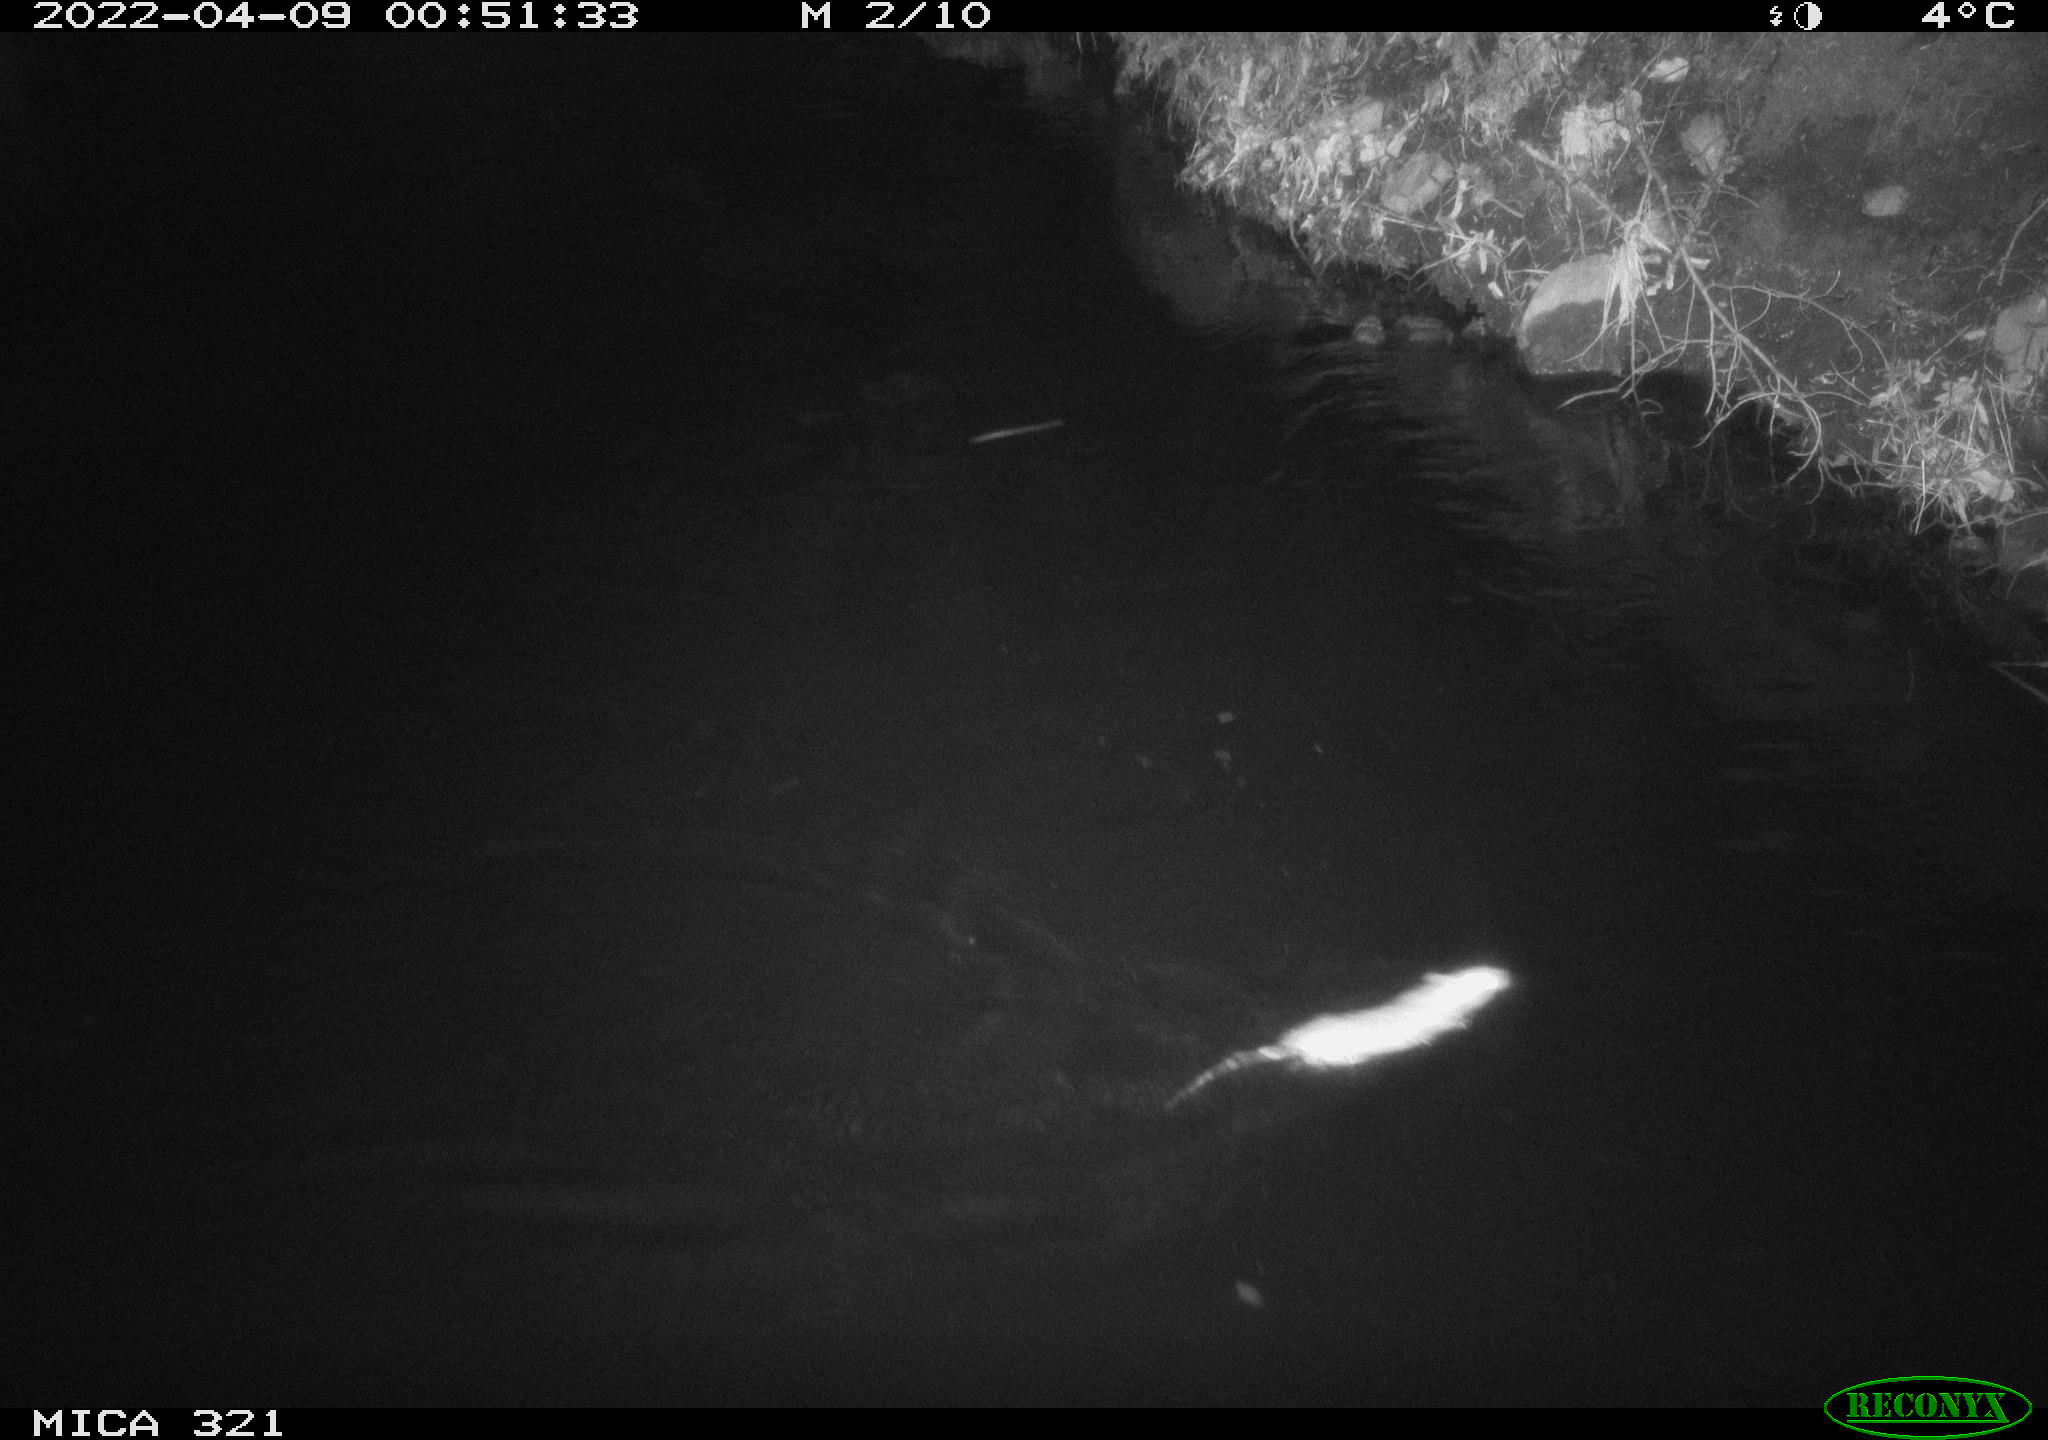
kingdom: Animalia
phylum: Chordata
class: Mammalia
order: Rodentia
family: Muridae
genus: Rattus
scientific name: Rattus norvegicus
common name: Brown rat
